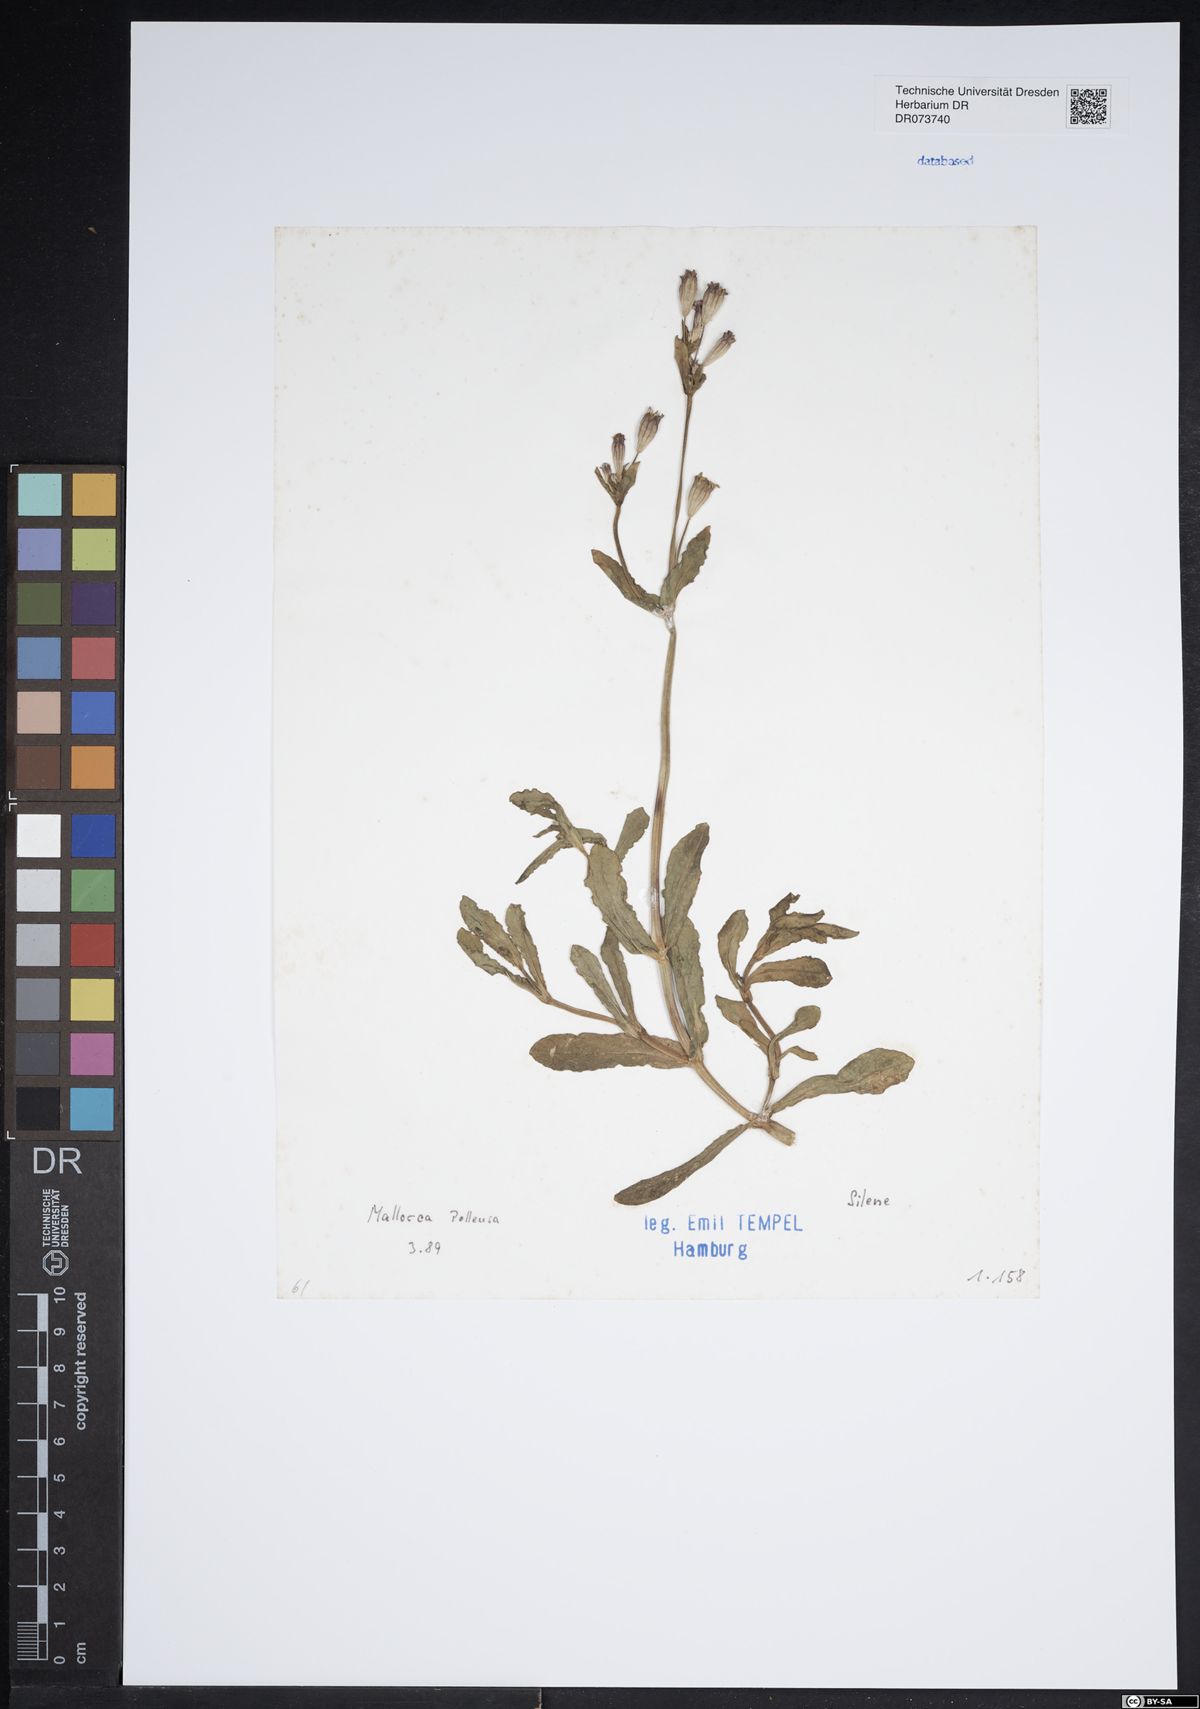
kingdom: Plantae
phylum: Tracheophyta
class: Magnoliopsida
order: Caryophyllales
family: Caryophyllaceae
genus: Silene
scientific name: Silene
